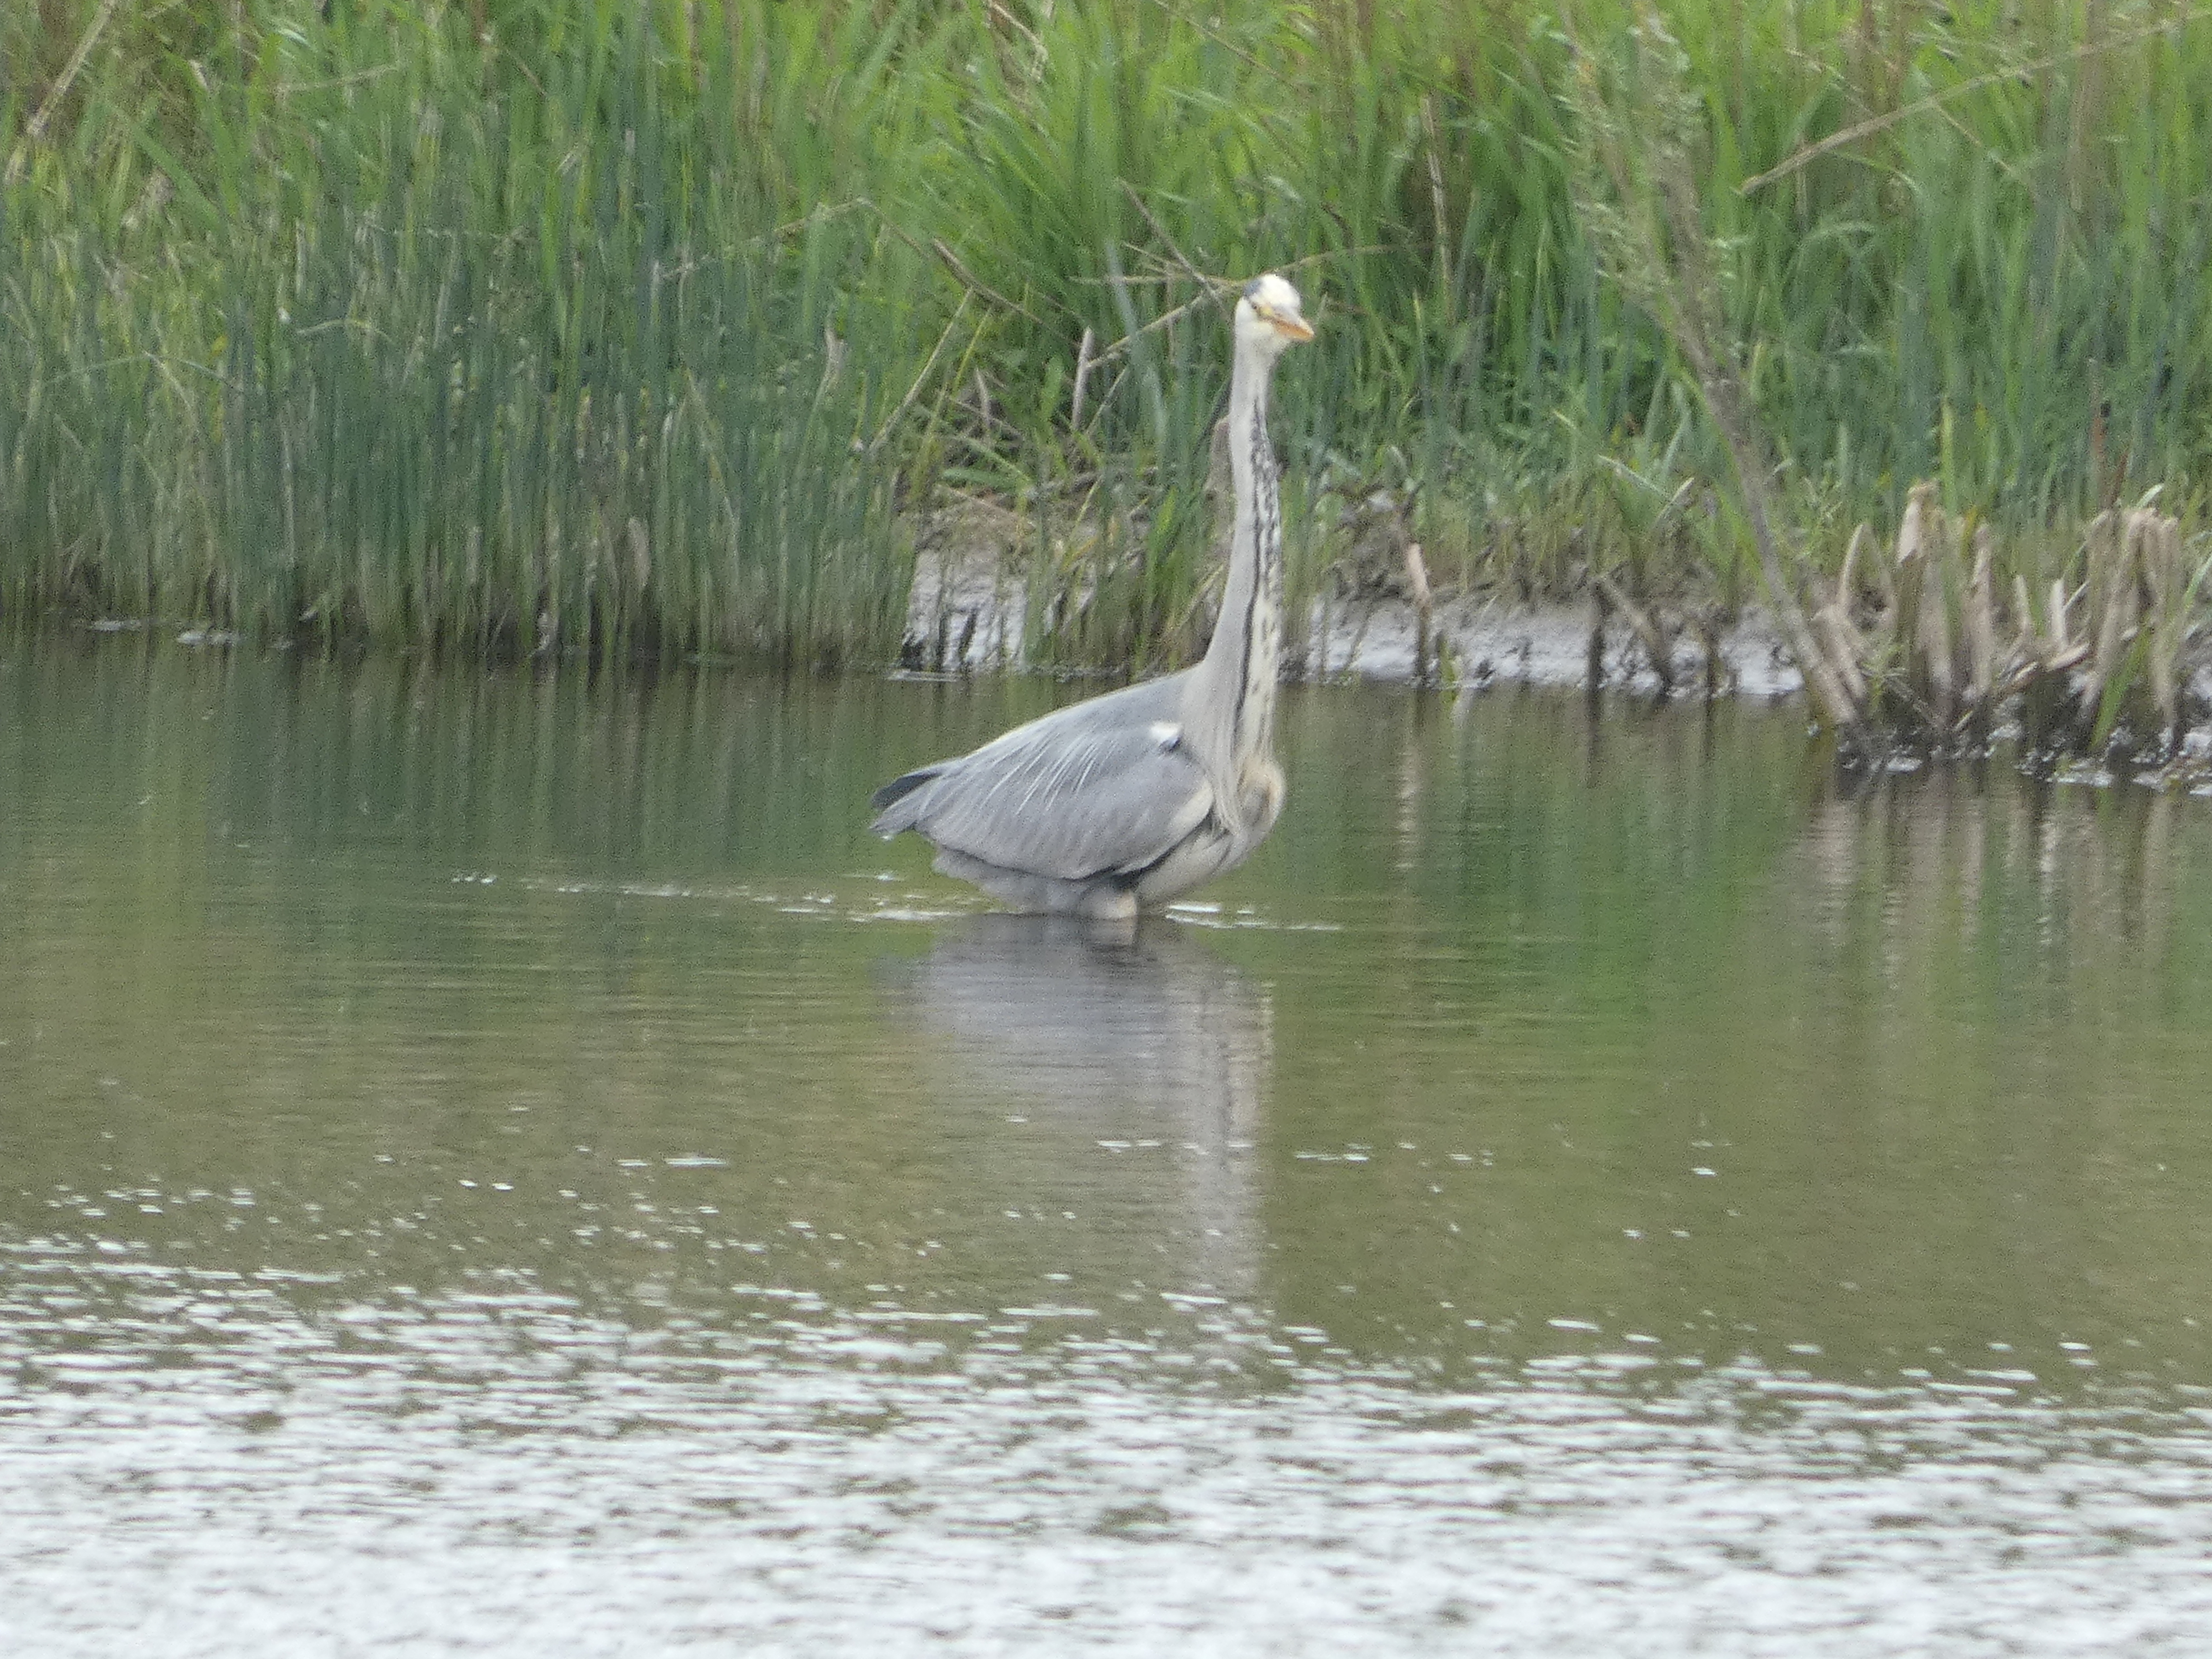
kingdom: Animalia
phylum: Chordata
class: Aves
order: Pelecaniformes
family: Ardeidae
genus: Ardea
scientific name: Ardea cinerea
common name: Fiskehejre
